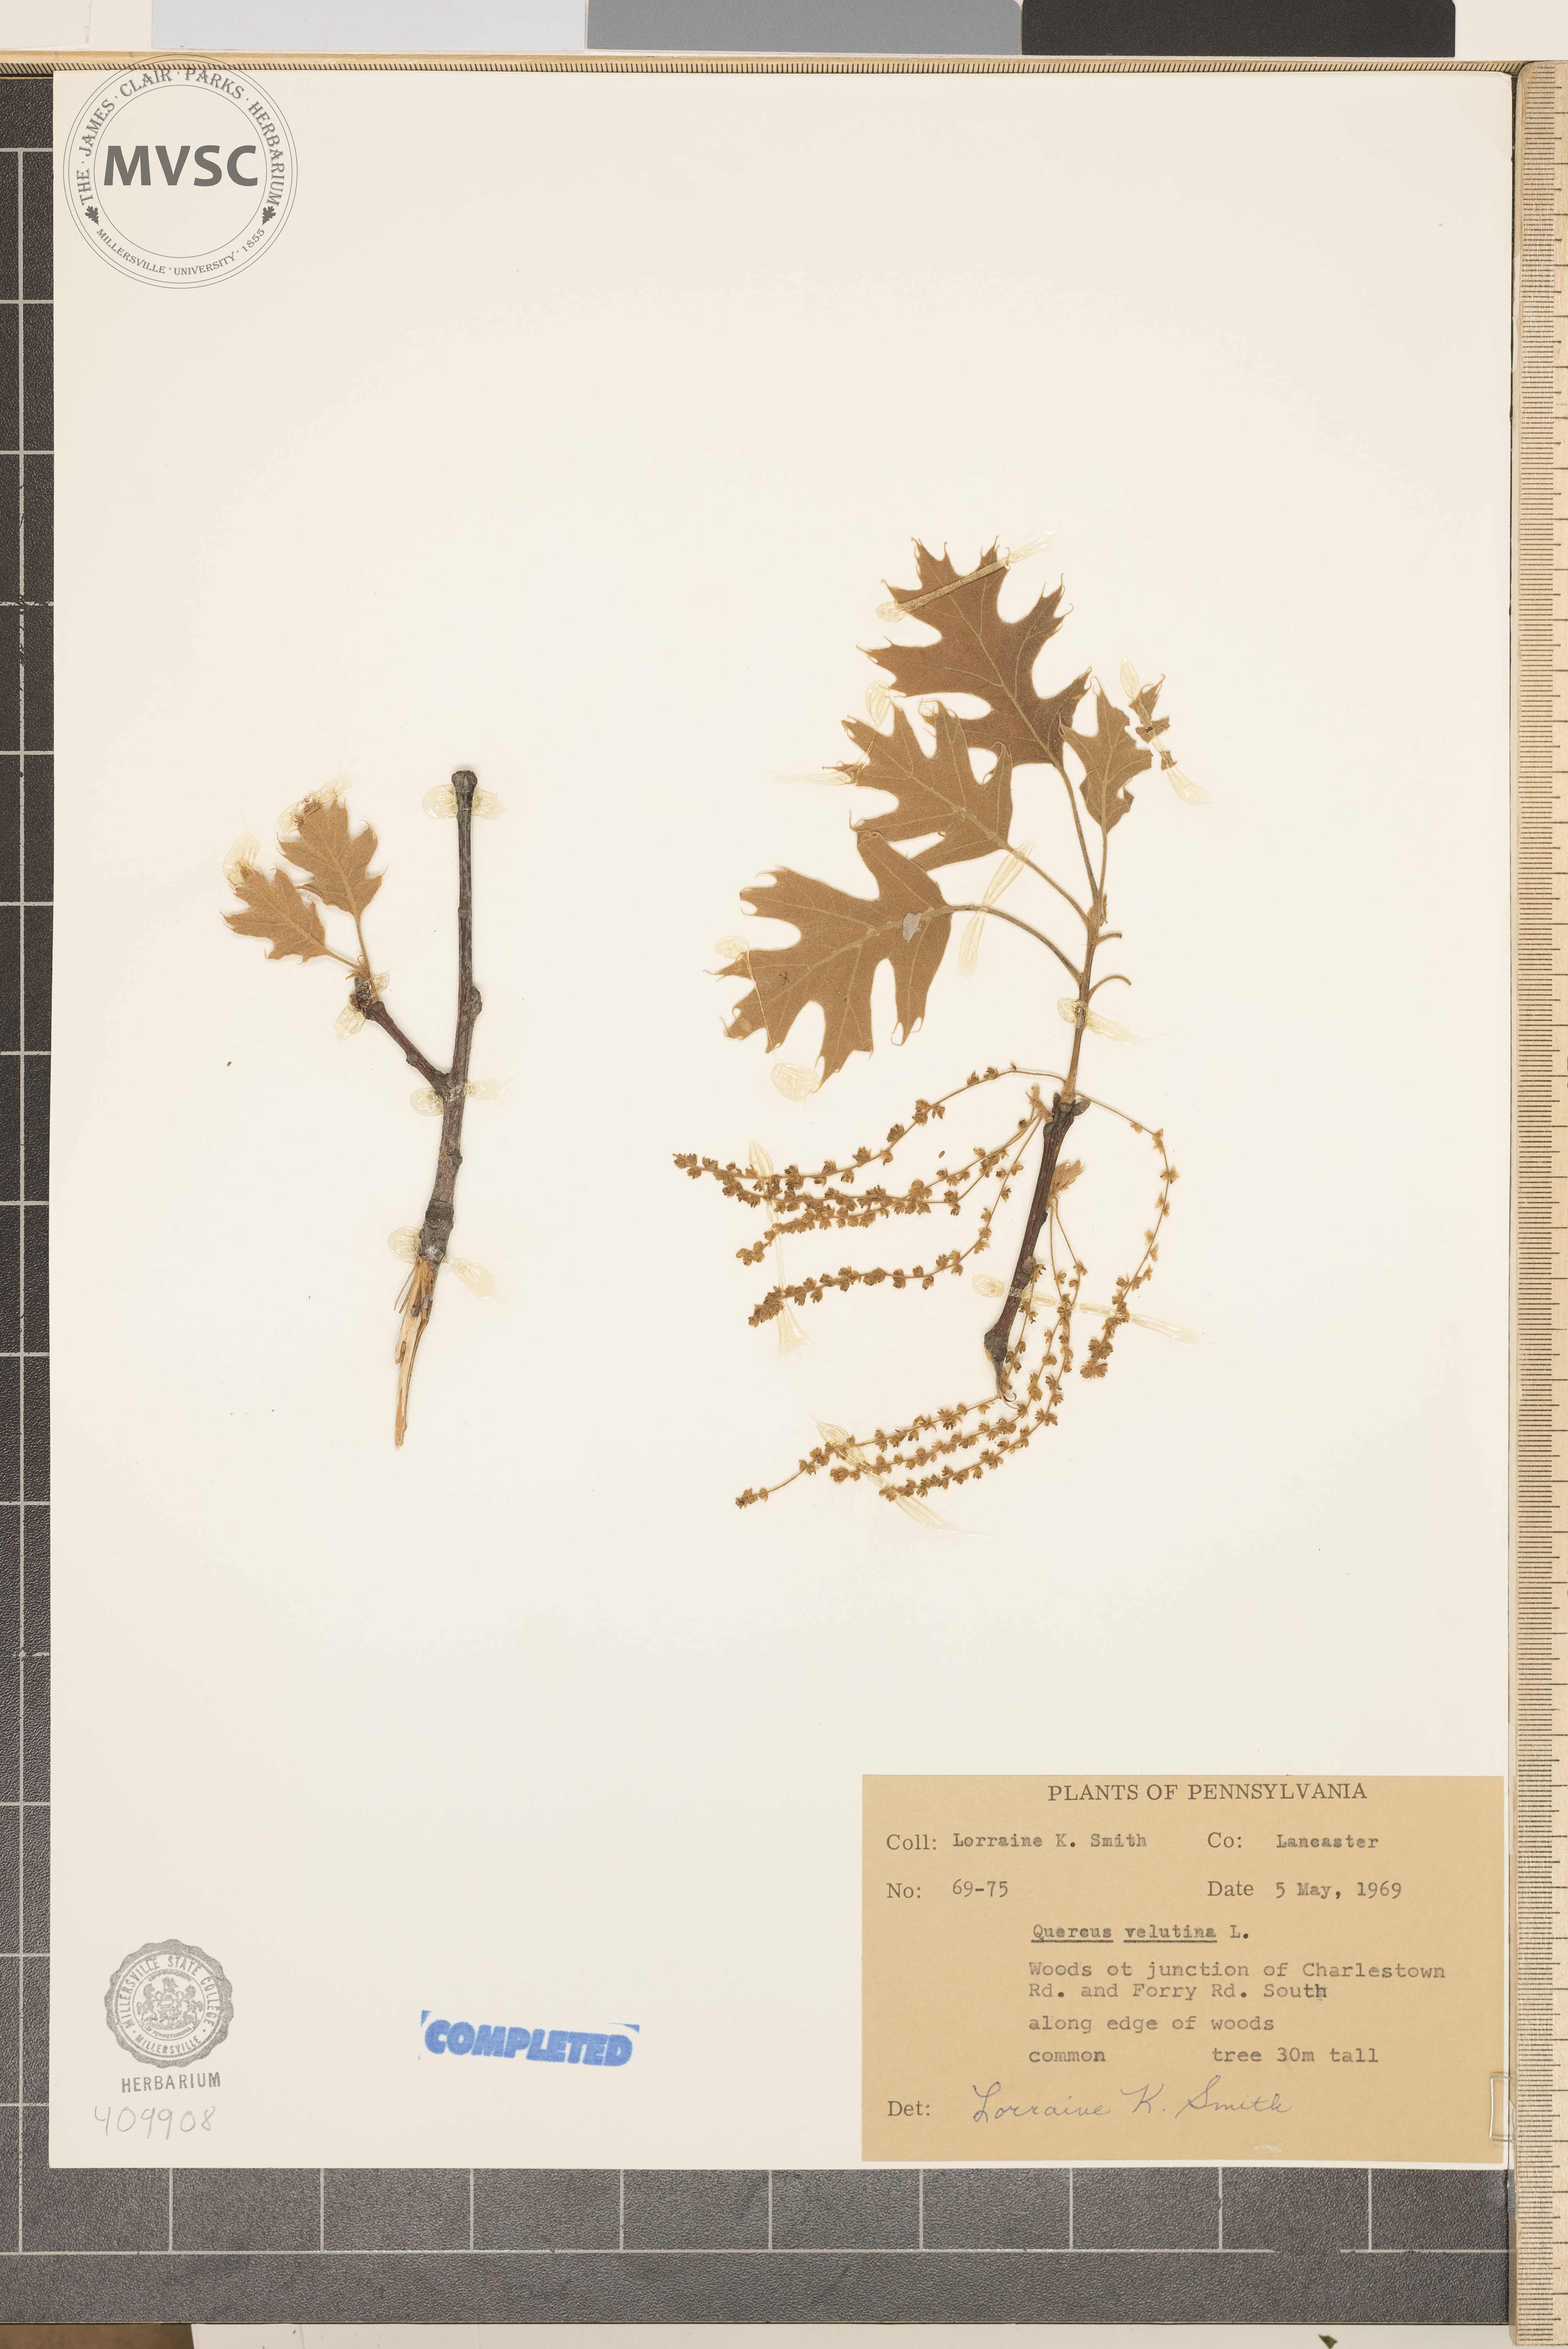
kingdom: Plantae
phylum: Tracheophyta
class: Magnoliopsida
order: Fagales
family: Fagaceae
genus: Quercus
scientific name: Quercus velutina
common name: Black oak
